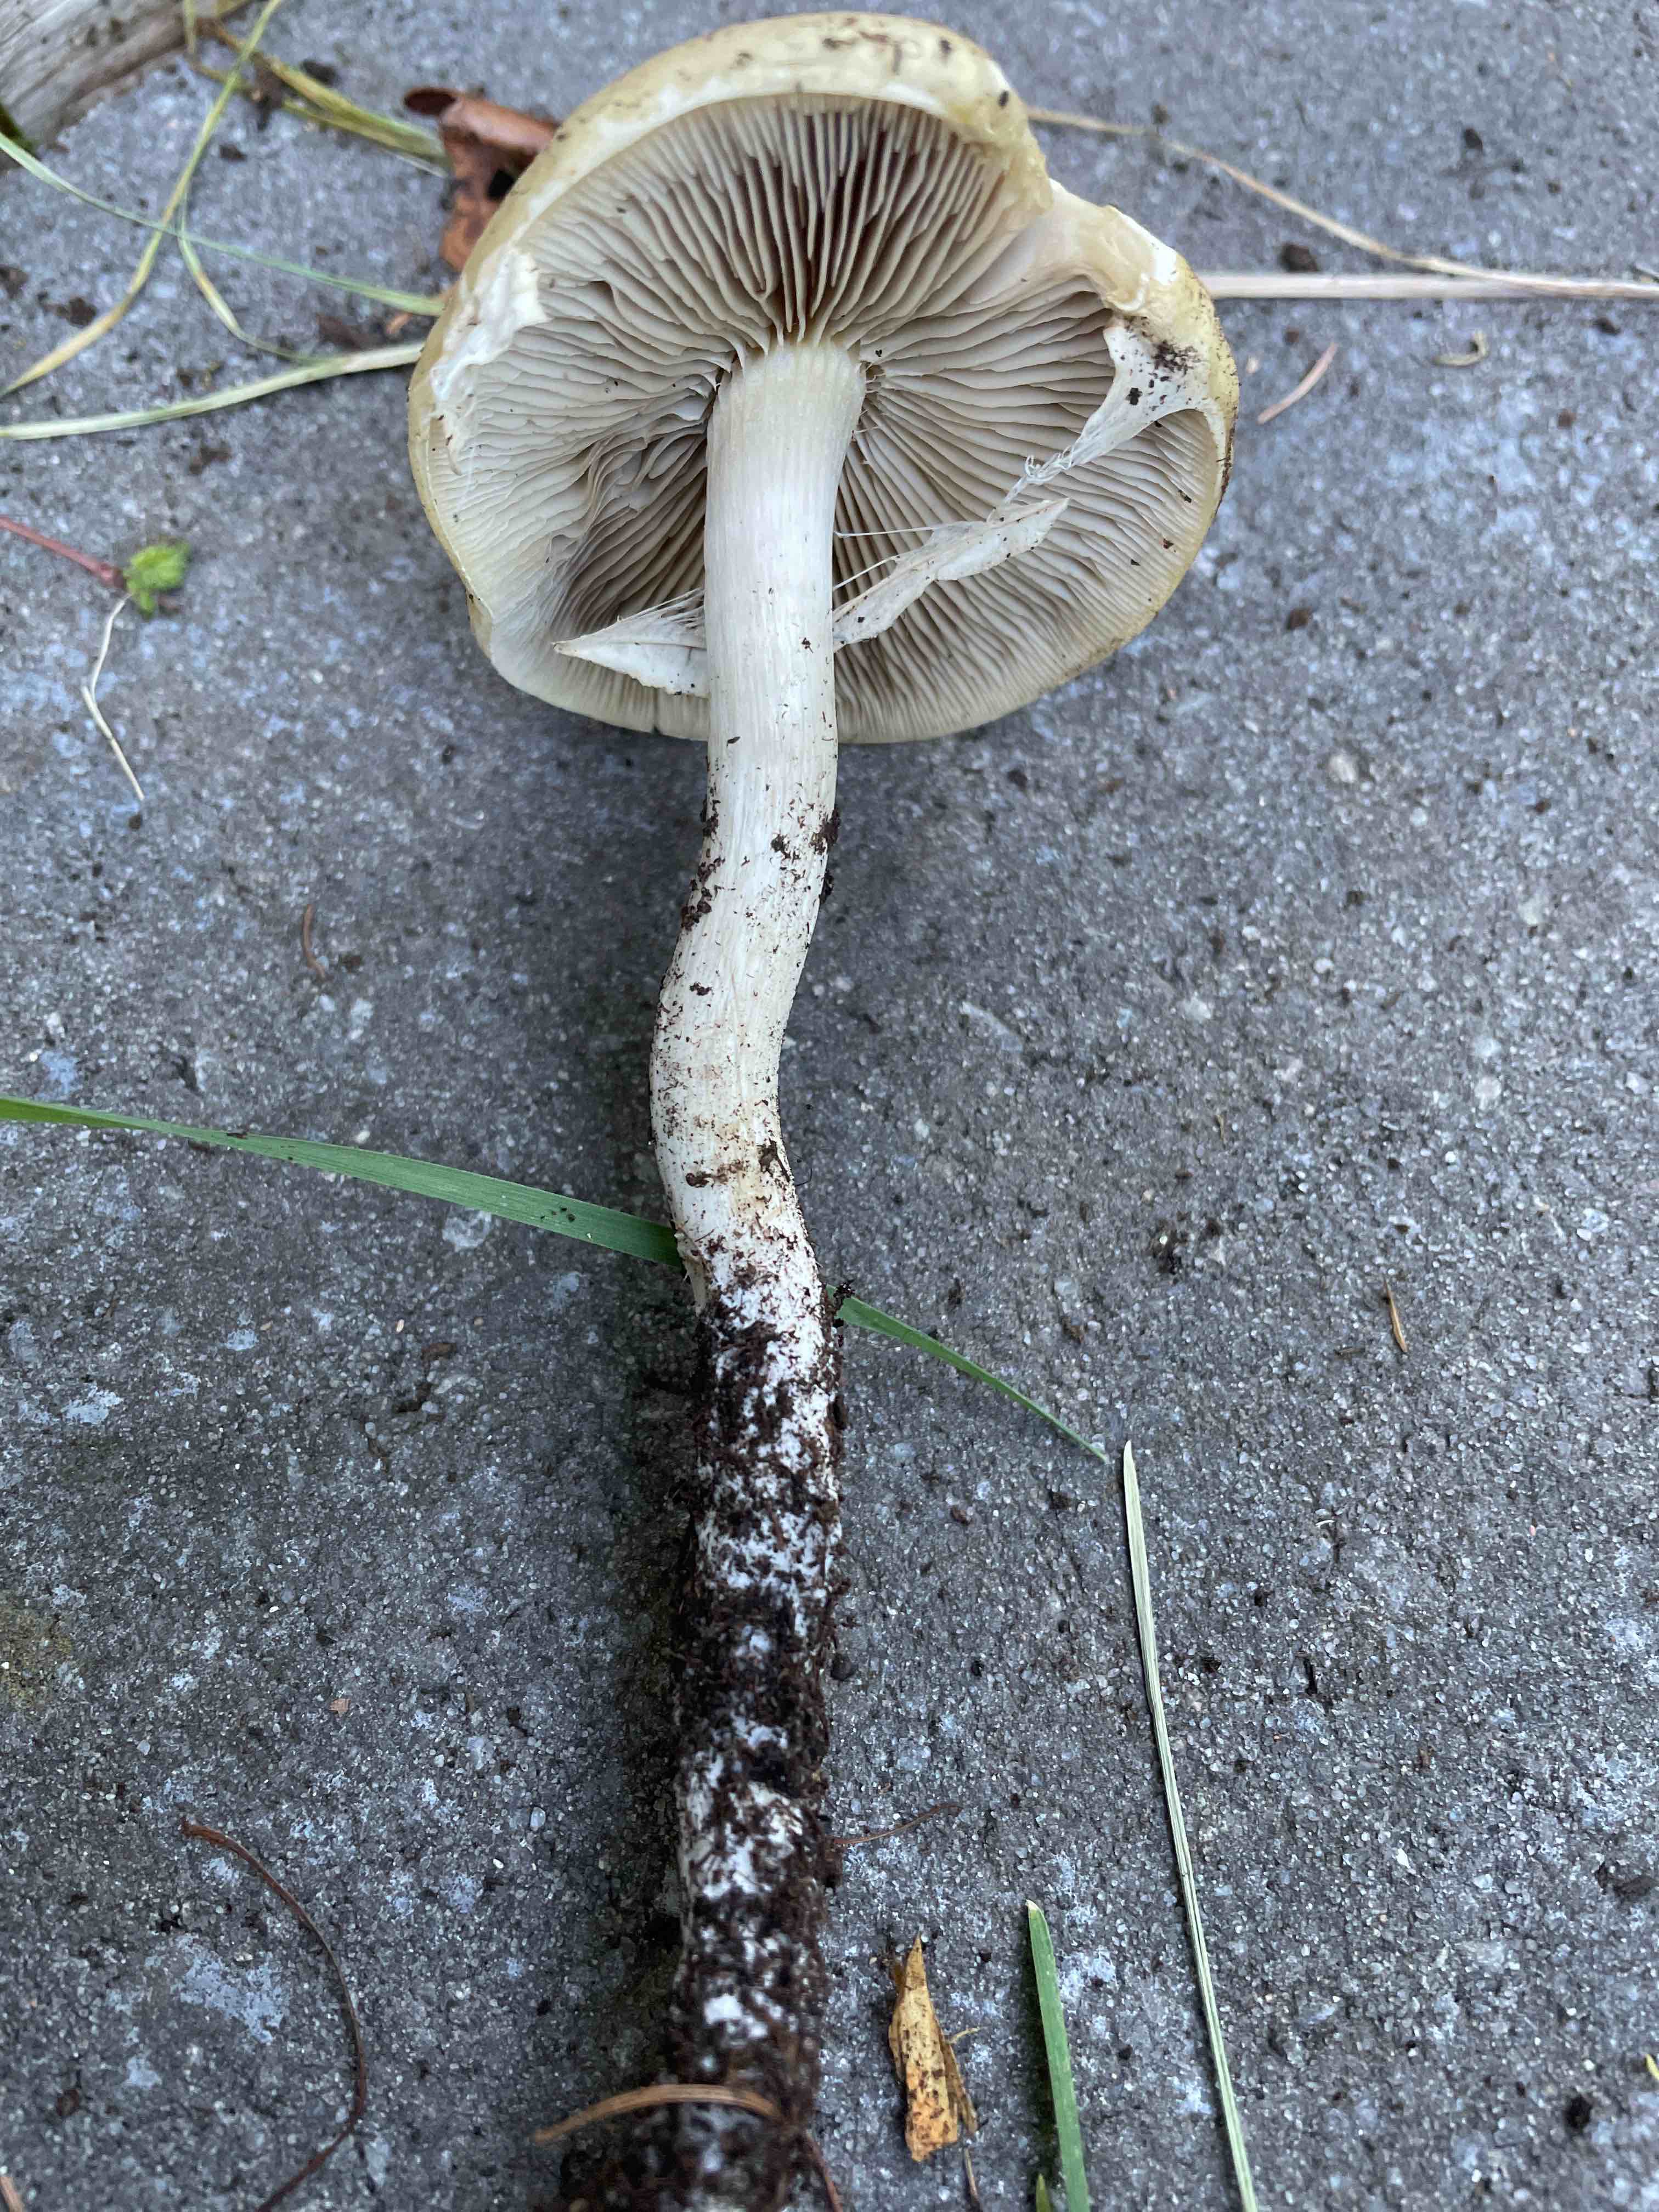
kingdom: Fungi
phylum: Basidiomycota
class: Agaricomycetes
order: Agaricales
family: Strophariaceae
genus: Agrocybe
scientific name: Agrocybe praecox
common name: tidlig agerhat
